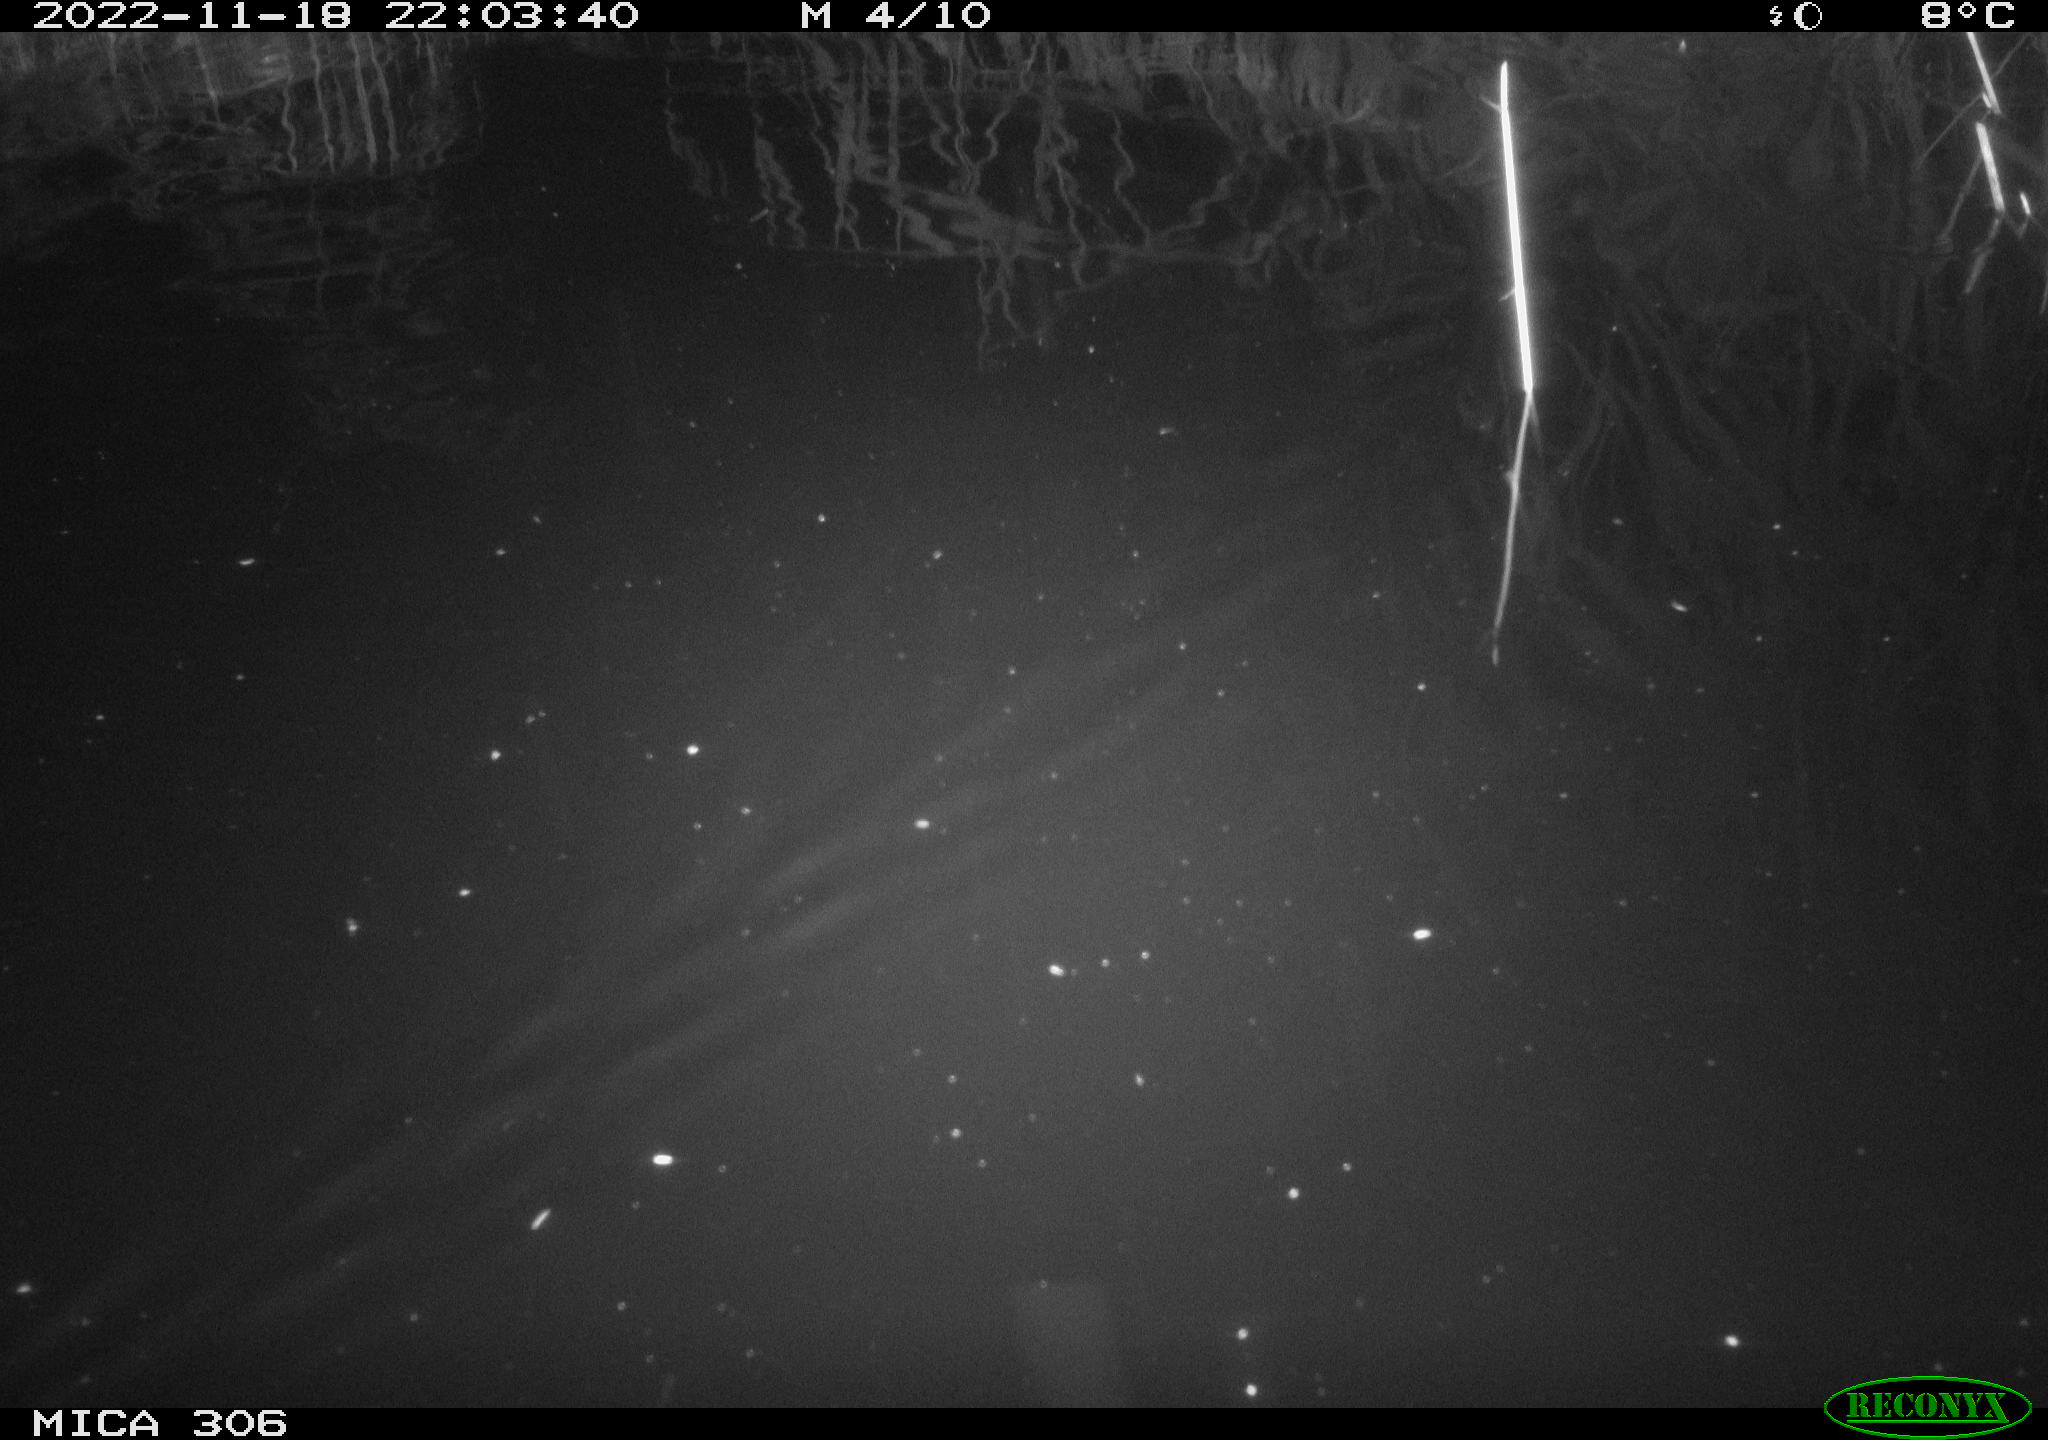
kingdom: Animalia
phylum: Chordata
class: Mammalia
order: Rodentia
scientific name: Rodentia
